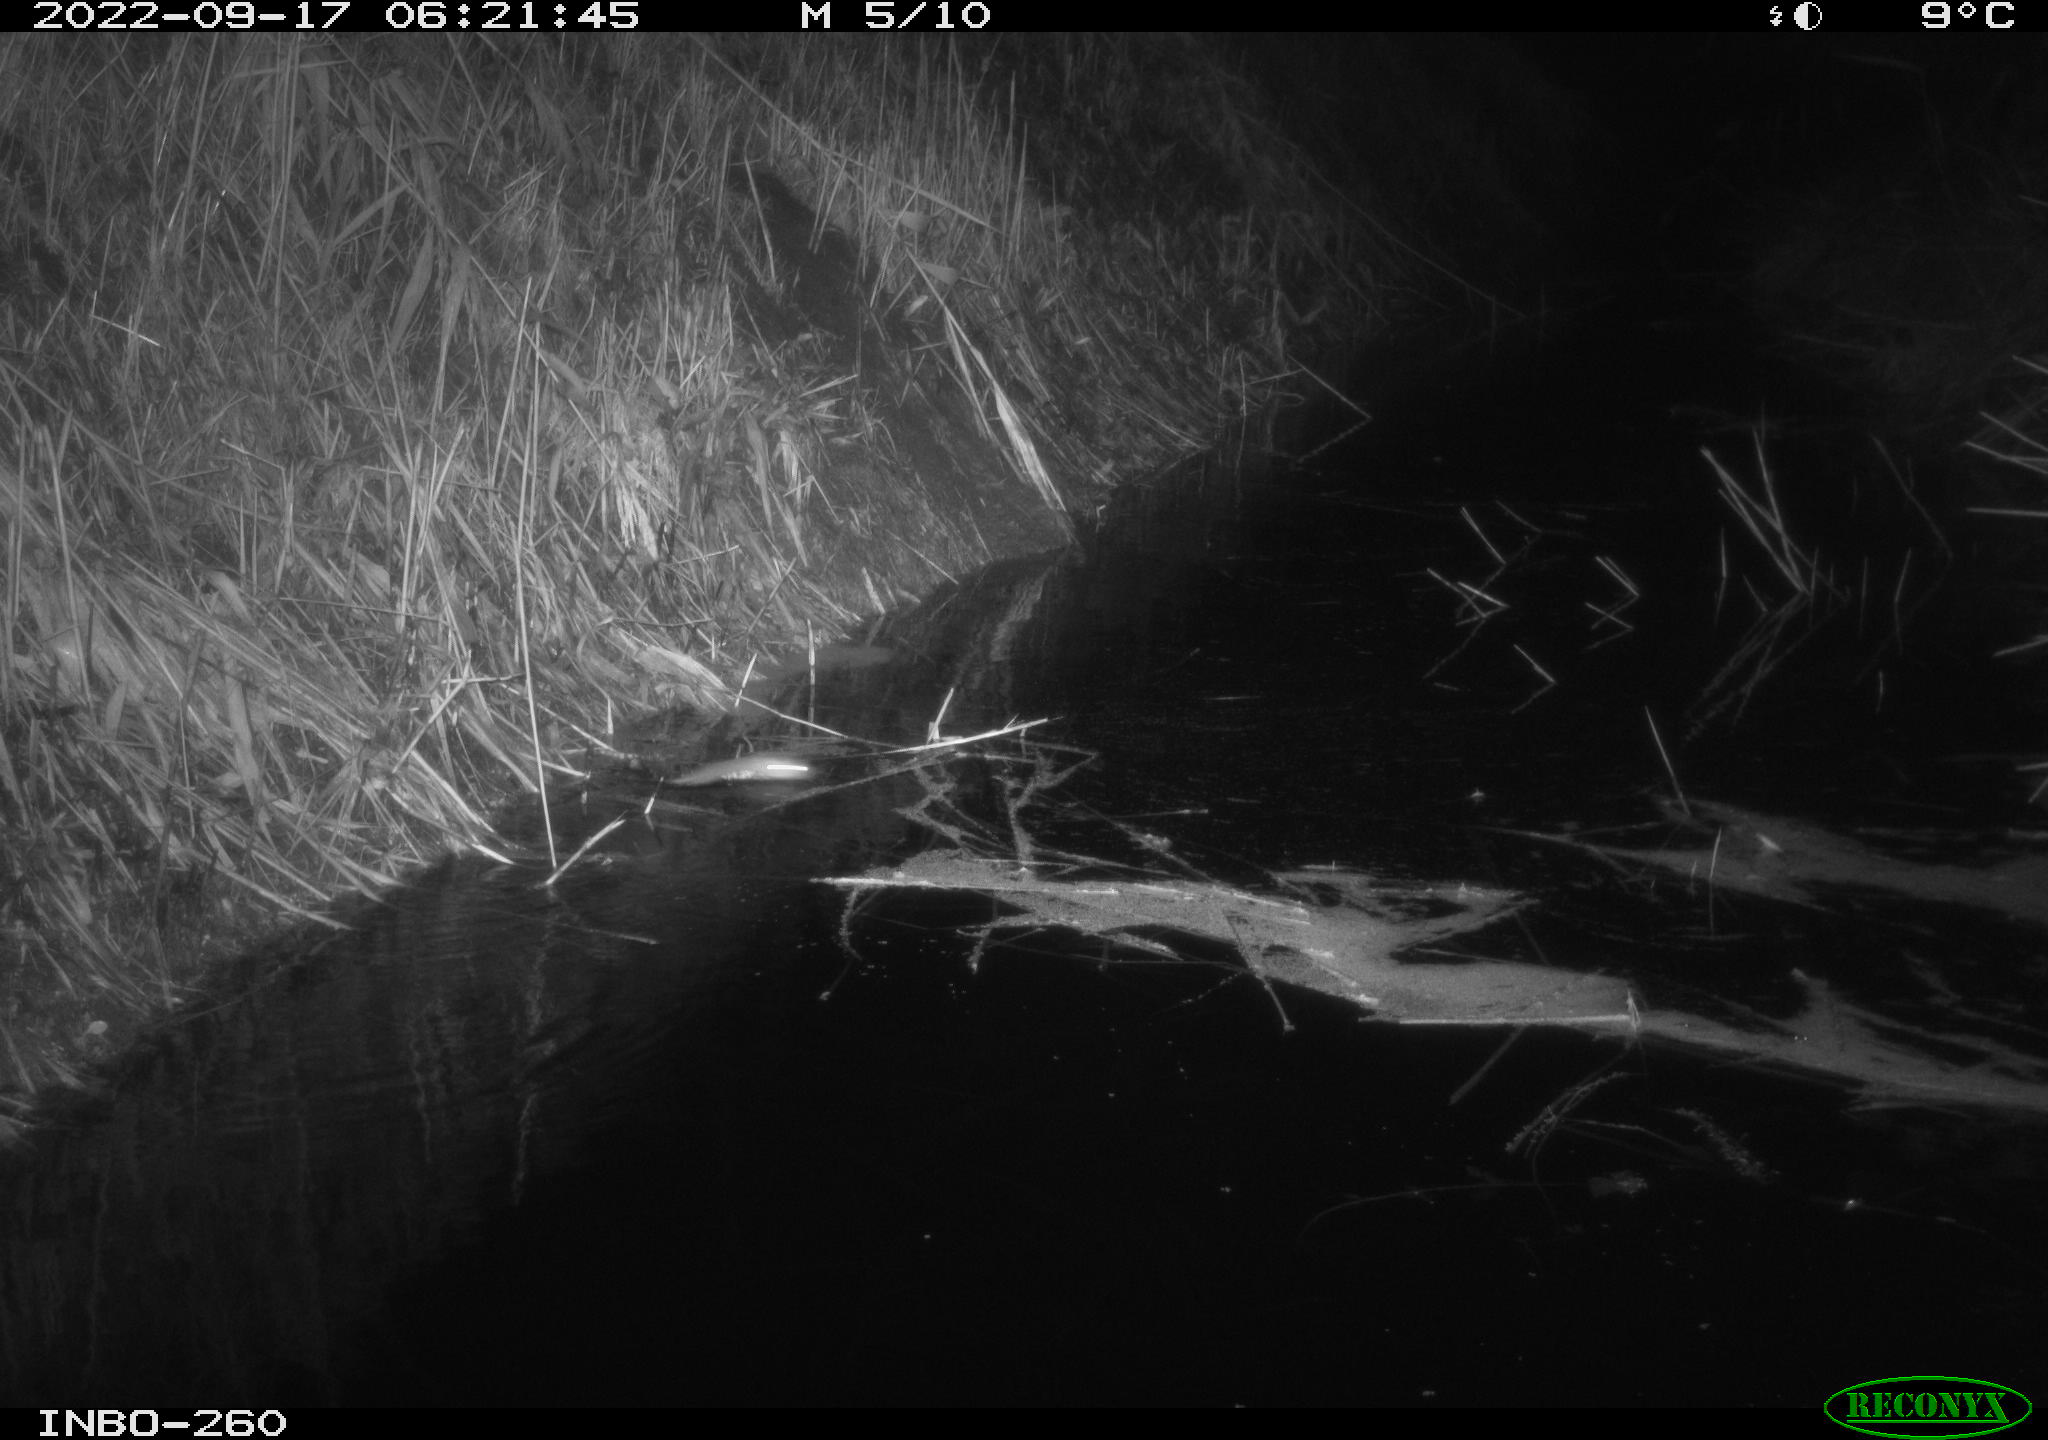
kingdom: Animalia
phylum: Chordata
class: Mammalia
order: Rodentia
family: Muridae
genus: Rattus
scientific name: Rattus norvegicus
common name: Brown rat
